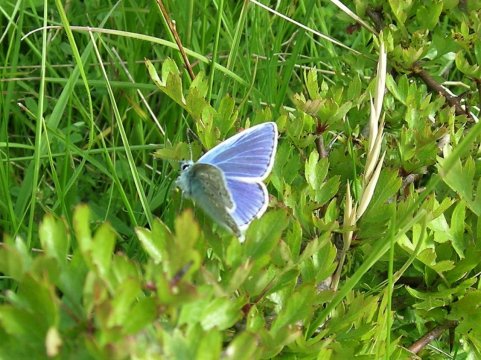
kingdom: Animalia
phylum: Arthropoda
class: Insecta
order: Lepidoptera
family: Lycaenidae
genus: Polyommatus
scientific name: Polyommatus icarus
